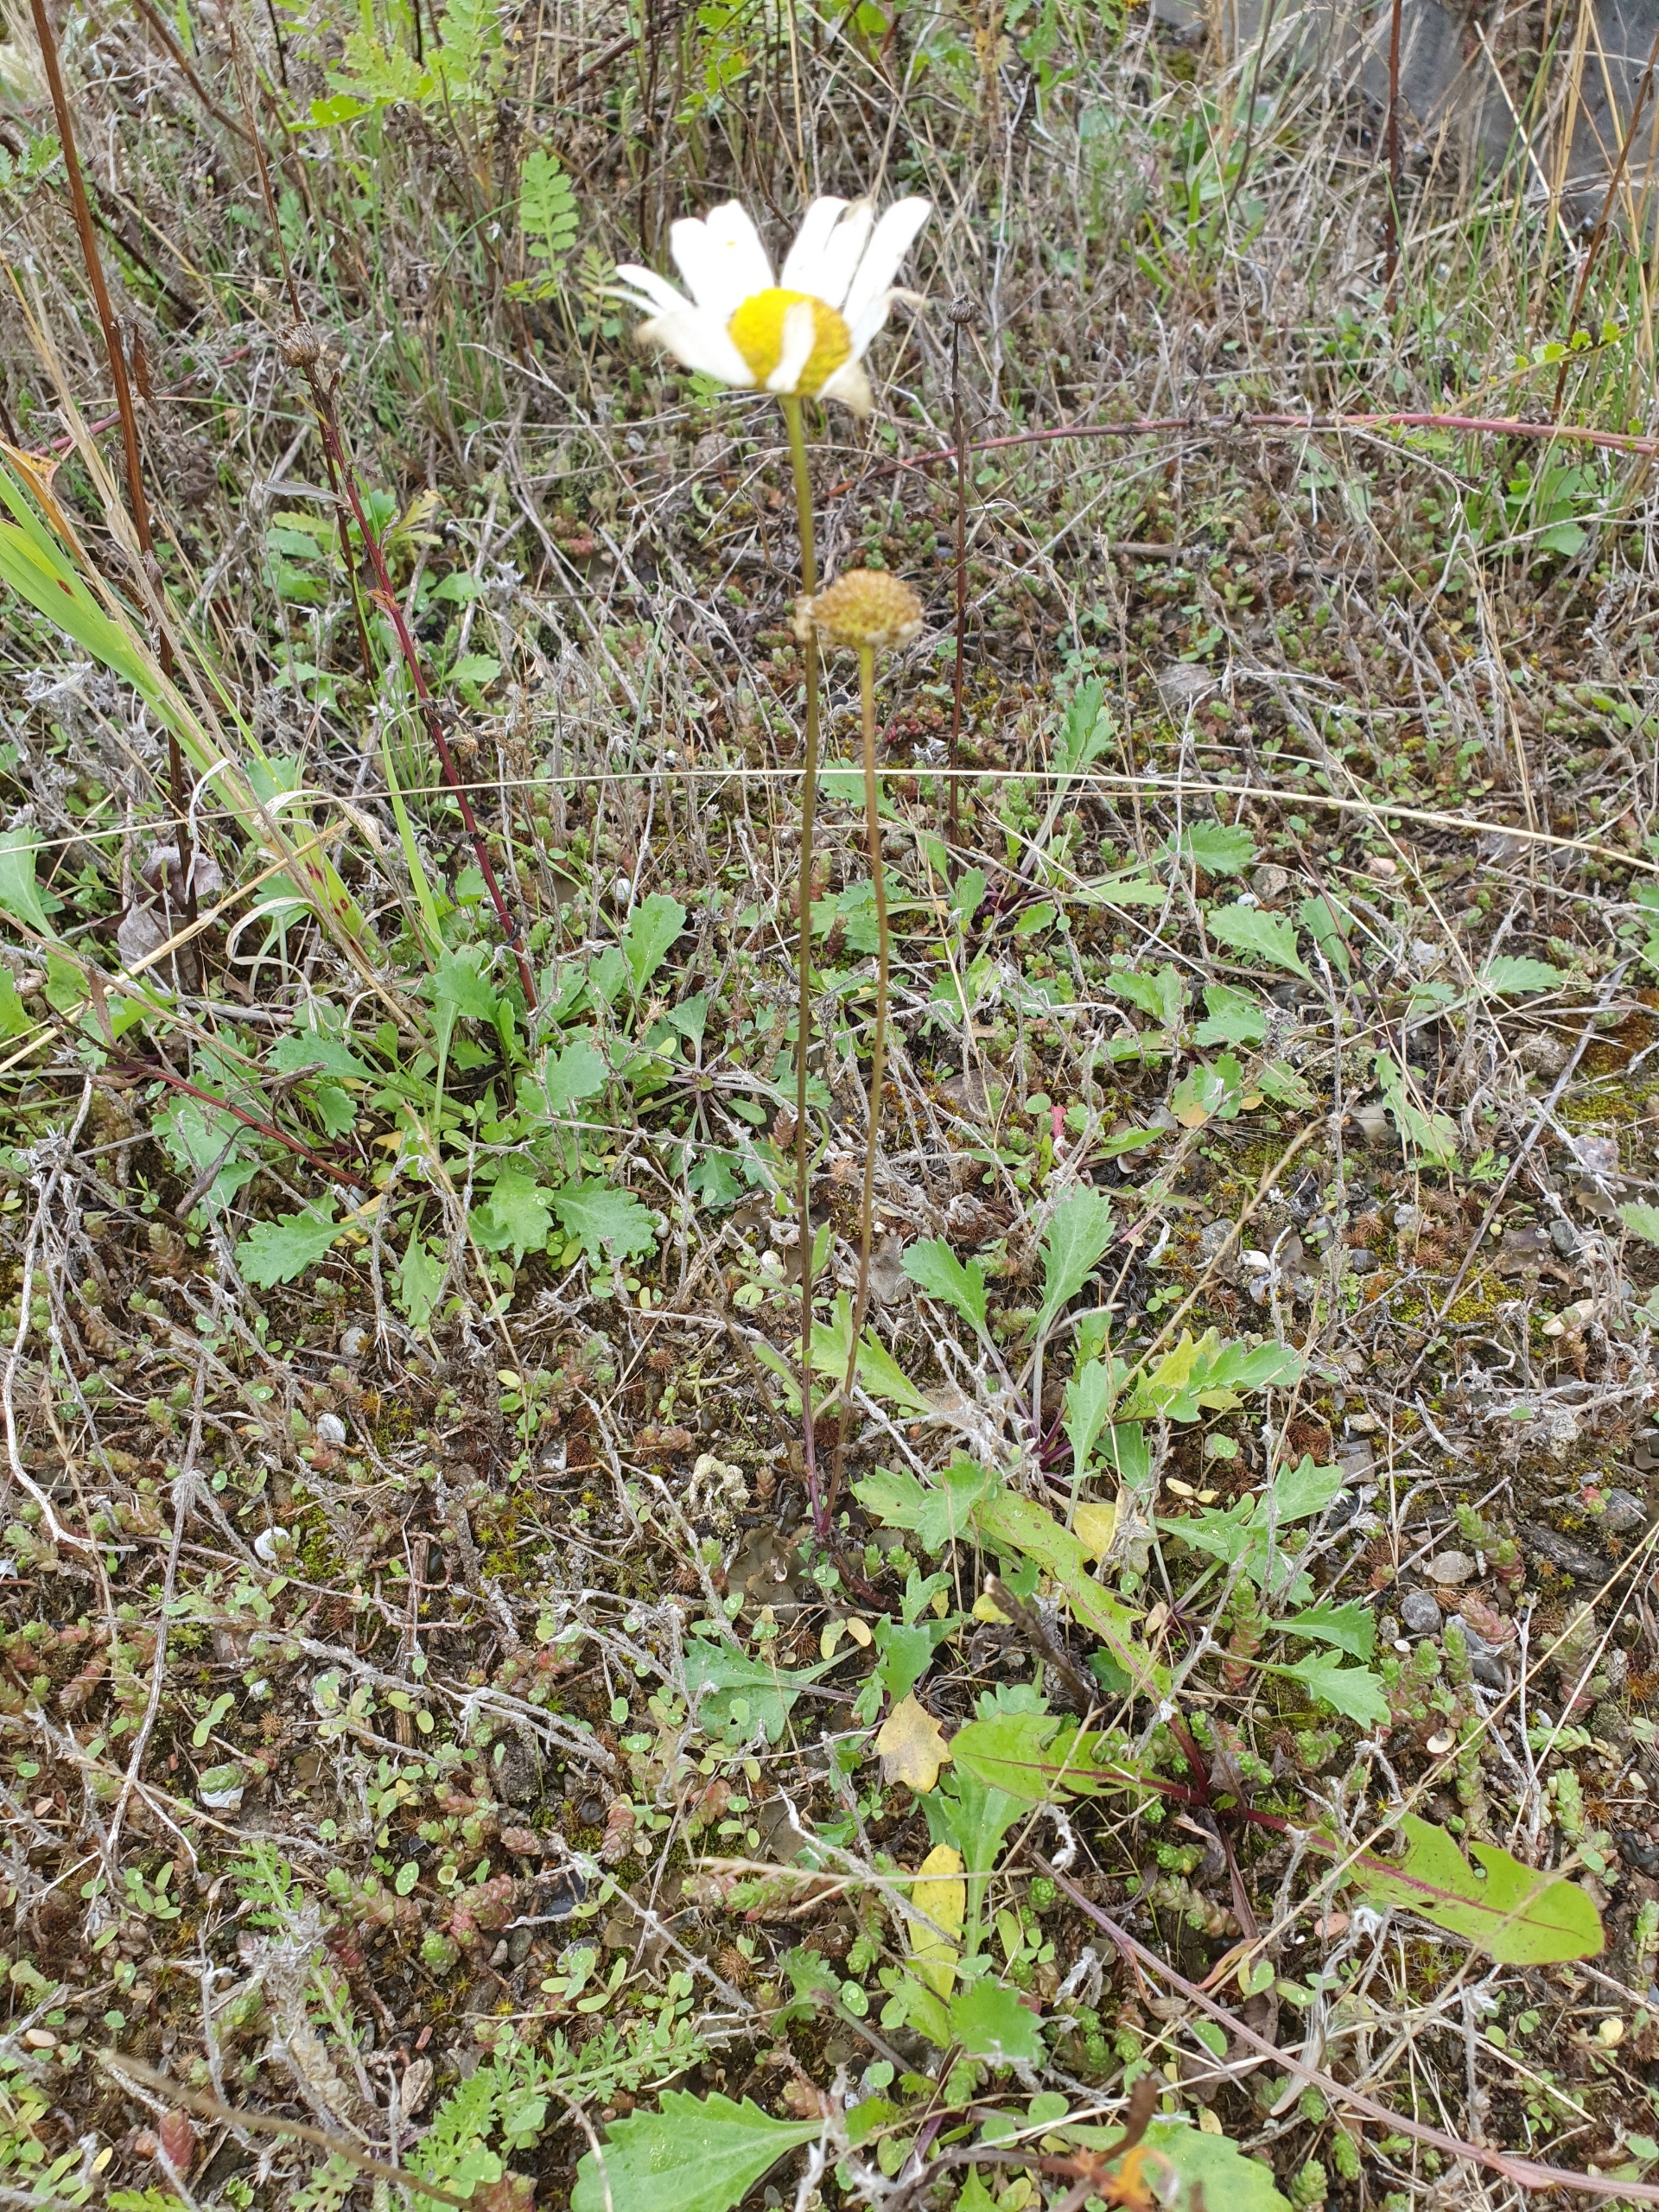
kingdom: Plantae
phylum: Tracheophyta
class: Magnoliopsida
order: Asterales
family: Asteraceae
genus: Leucanthemum
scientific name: Leucanthemum vulgare
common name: Hvid okseøje
